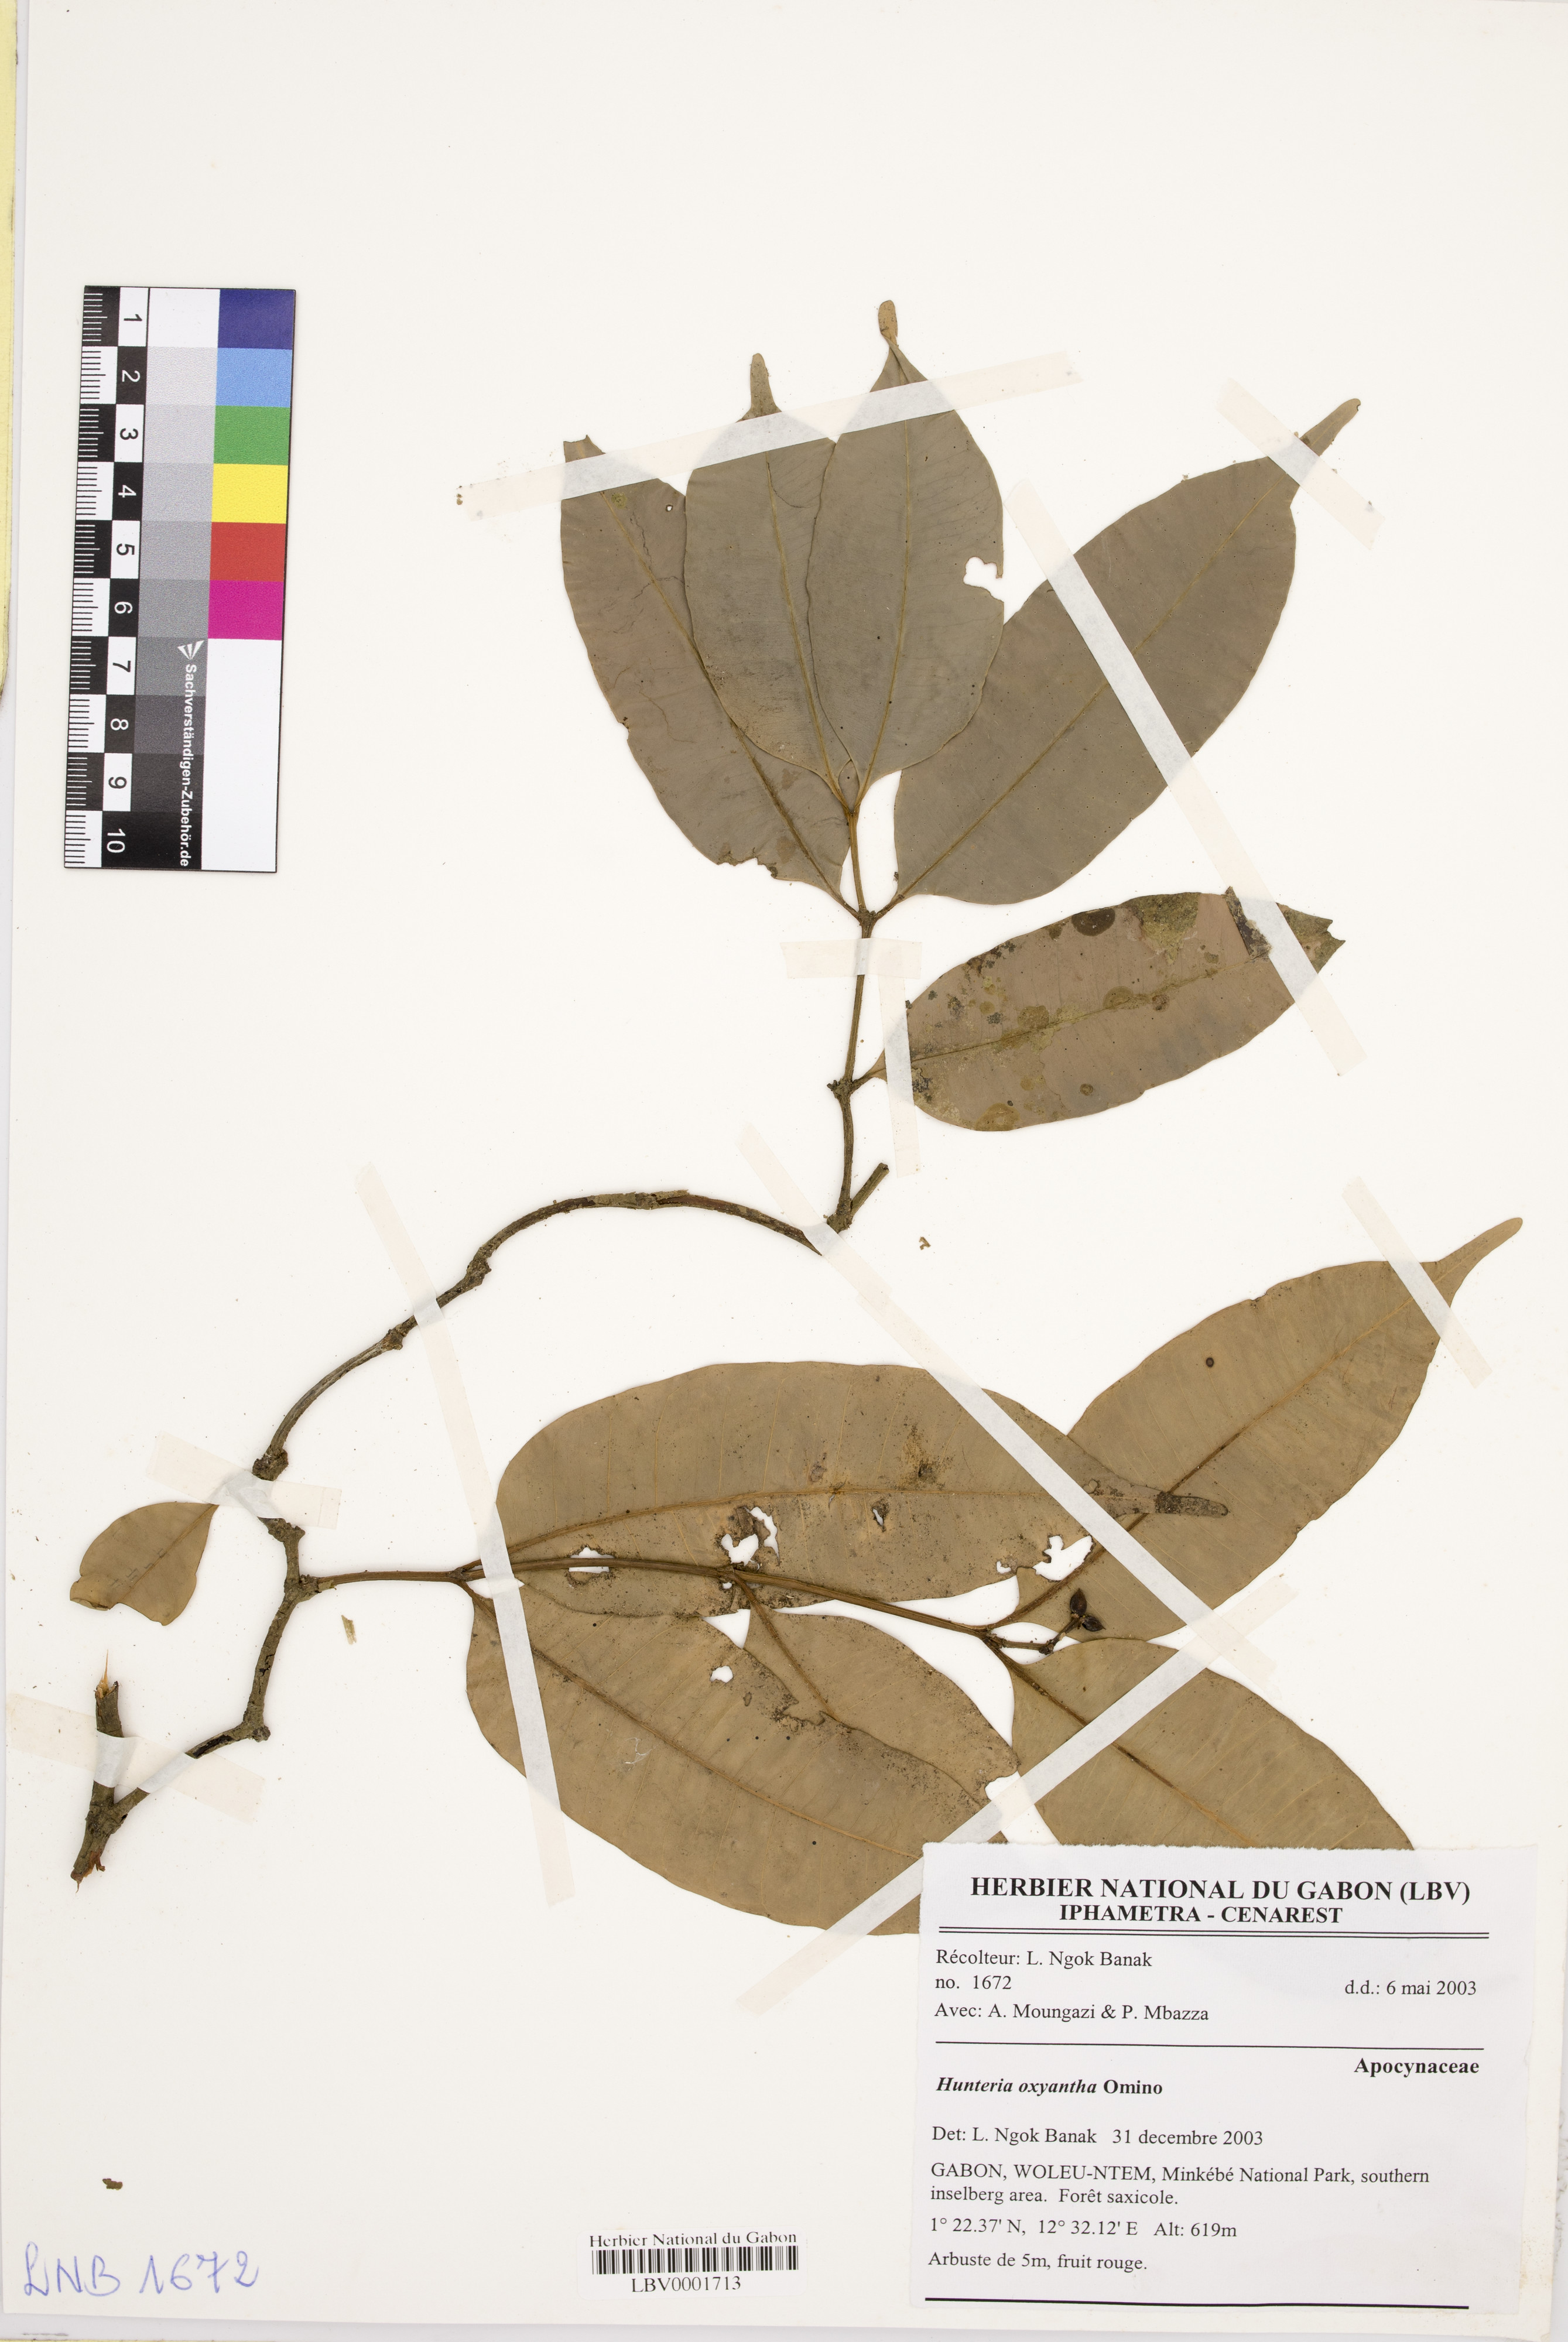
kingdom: Plantae
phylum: Tracheophyta
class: Magnoliopsida
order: Gentianales
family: Apocynaceae
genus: Hunteria
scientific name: Hunteria oxyantha
